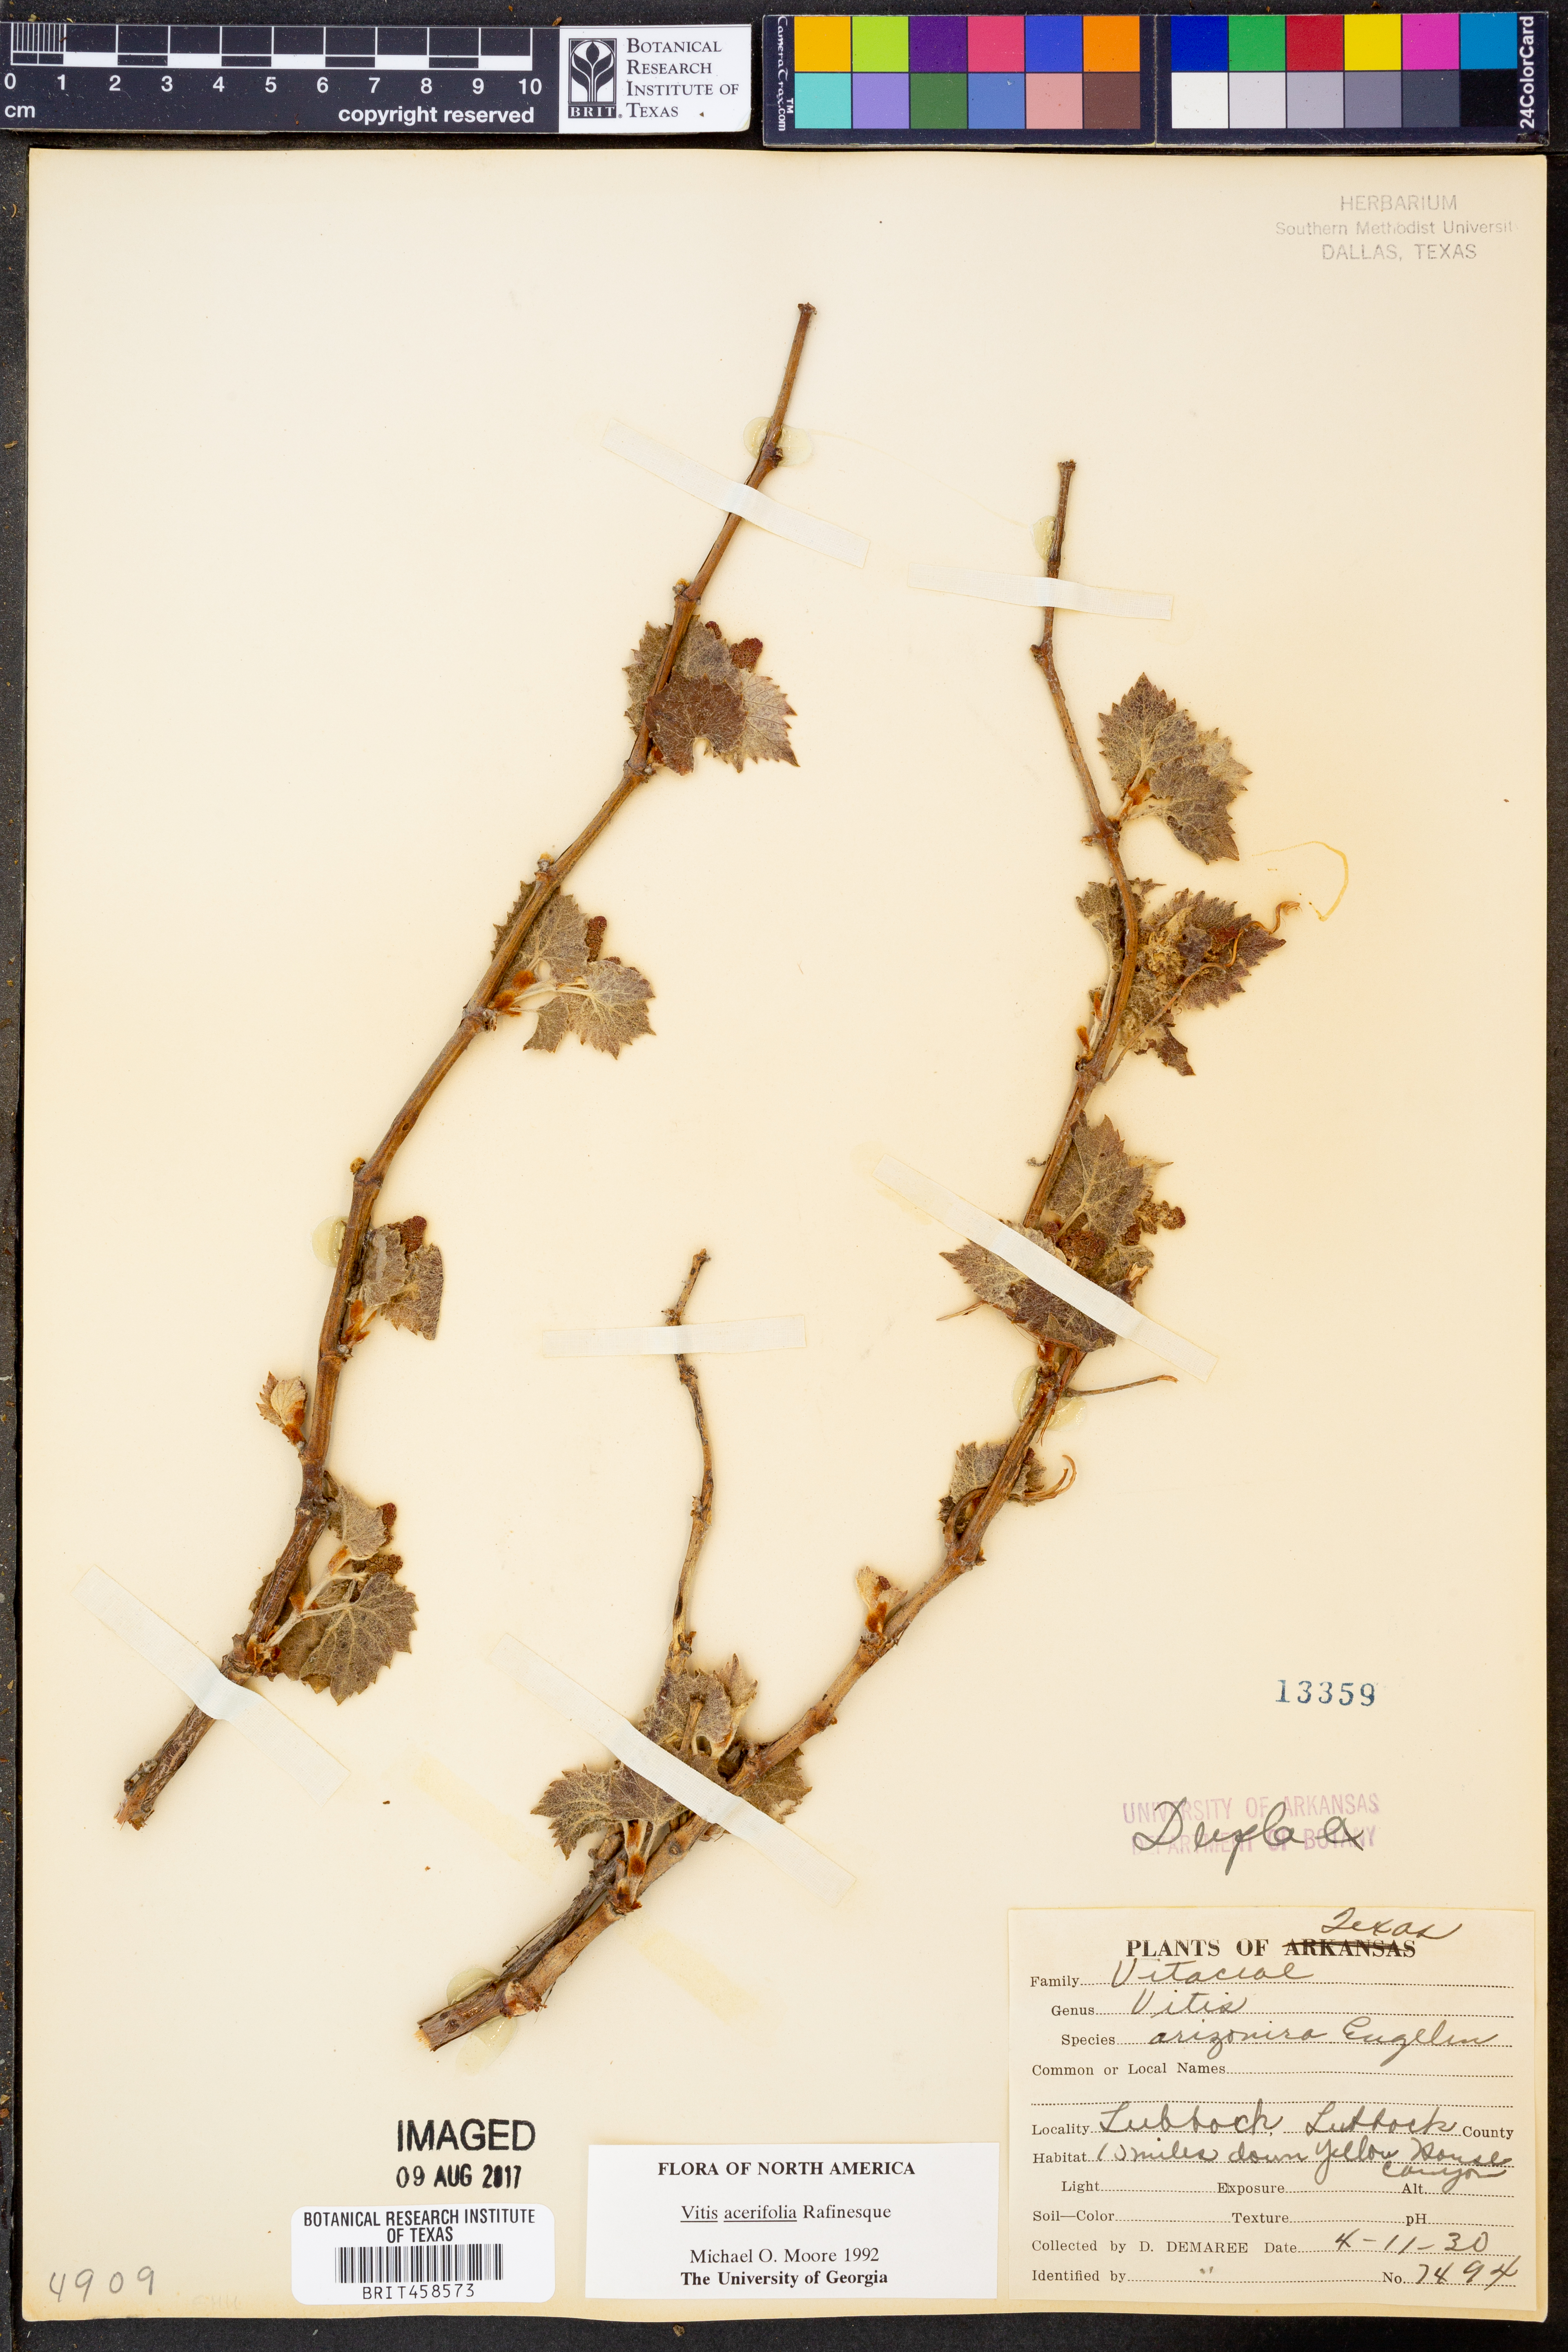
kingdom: Plantae
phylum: Tracheophyta
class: Magnoliopsida
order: Vitales
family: Vitaceae
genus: Vitis
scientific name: Vitis acerifolia
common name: Bush grape
